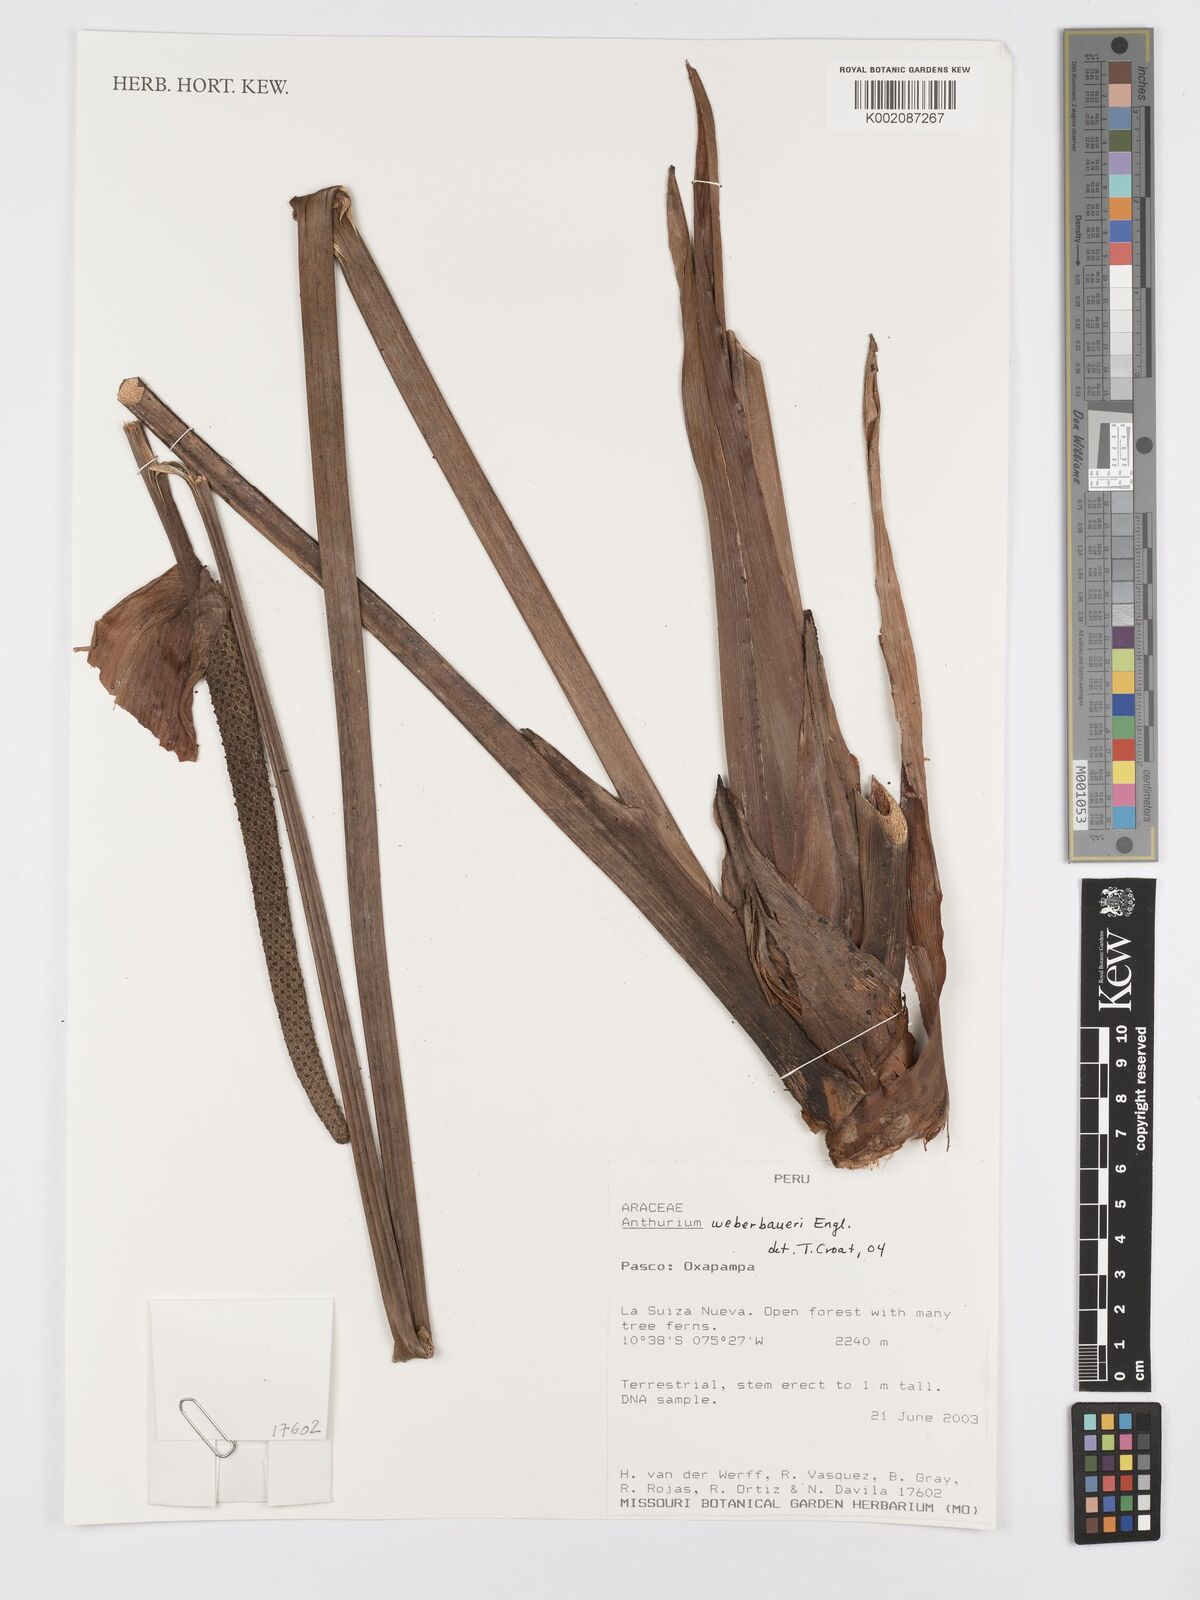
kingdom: Plantae
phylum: Tracheophyta
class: Liliopsida
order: Alismatales
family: Araceae
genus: Anthurium
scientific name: Anthurium weberbaueri
